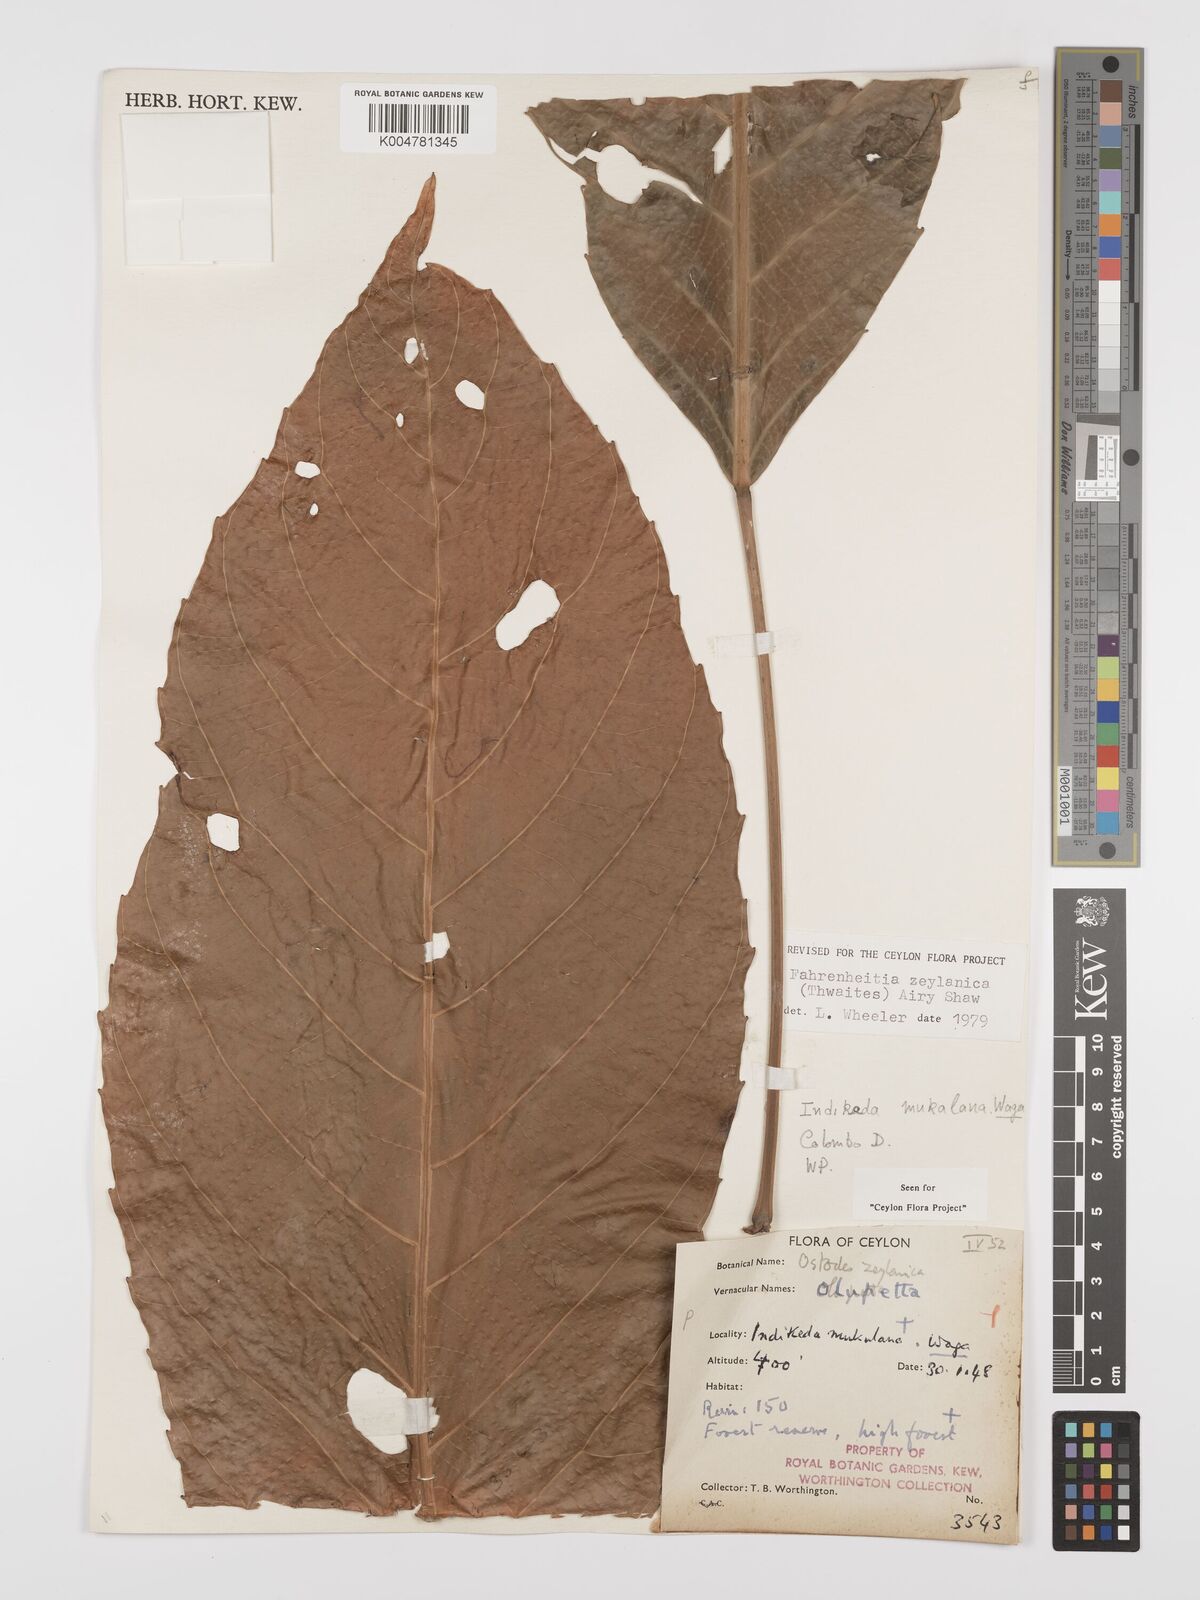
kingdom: Plantae
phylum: Tracheophyta
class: Magnoliopsida
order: Malpighiales
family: Euphorbiaceae
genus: Paracroton
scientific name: Paracroton zeylanicus
